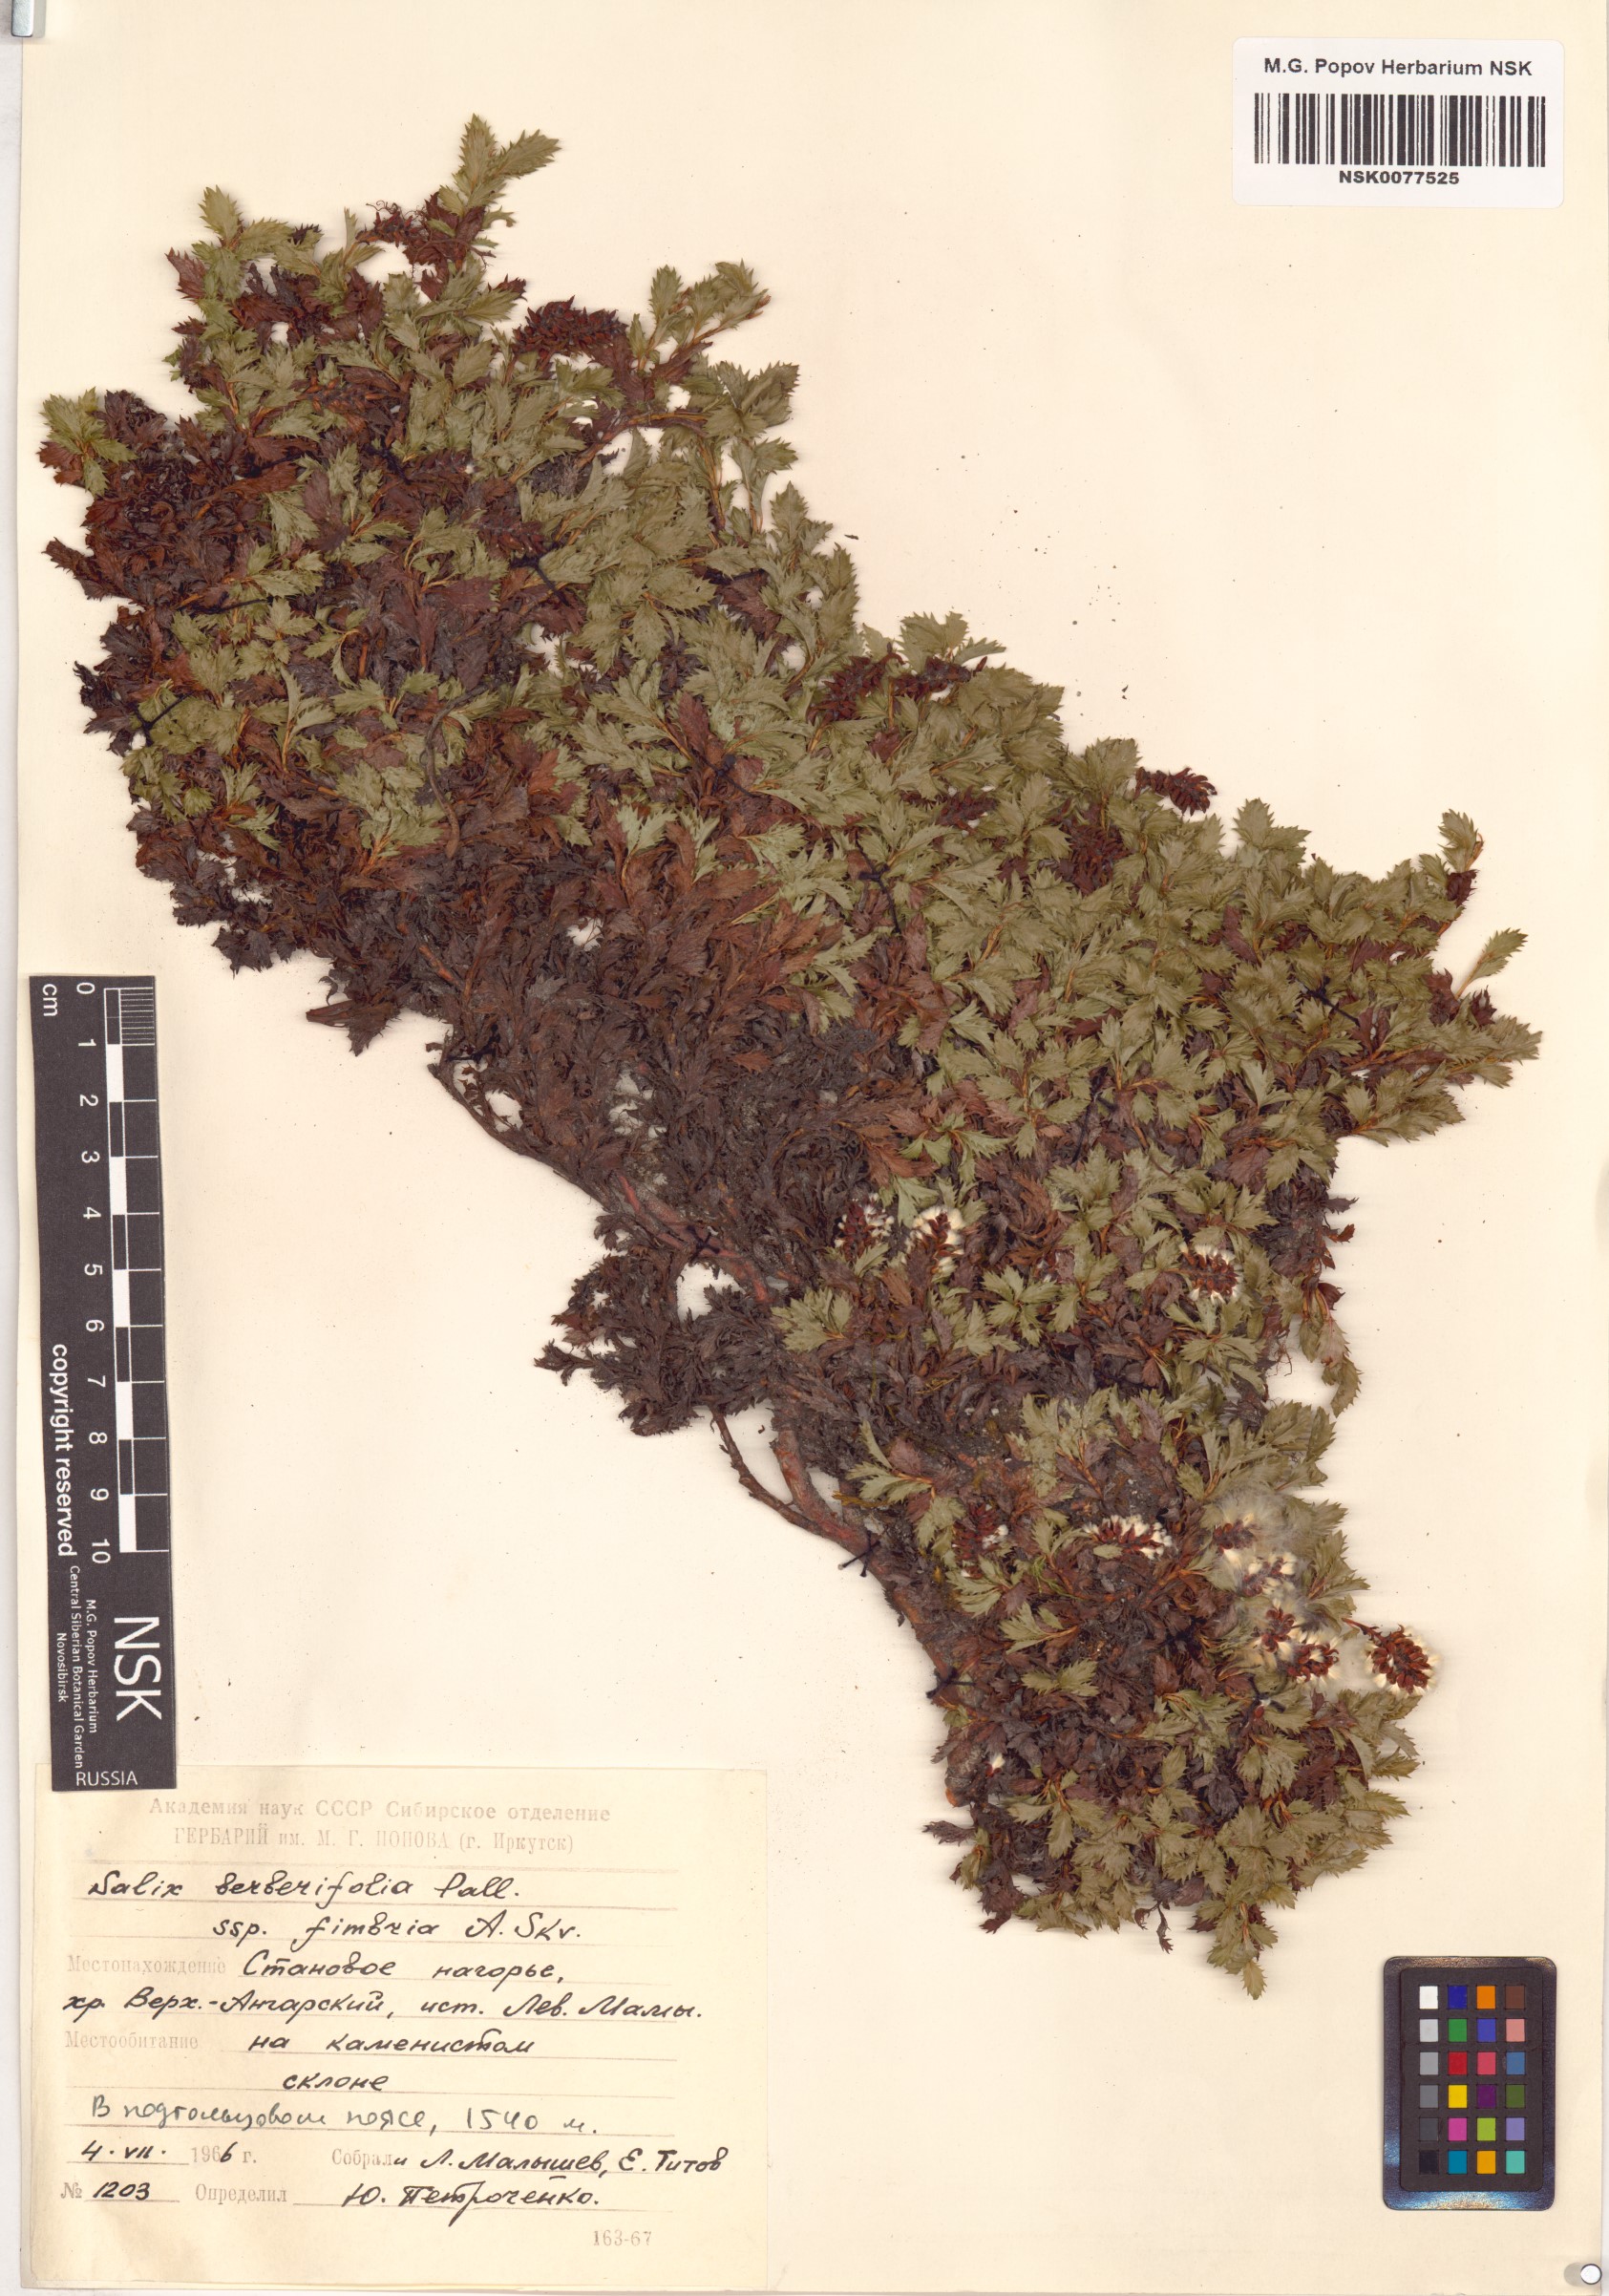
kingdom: Plantae
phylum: Tracheophyta
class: Magnoliopsida
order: Malpighiales
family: Salicaceae
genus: Salix
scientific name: Salix berberifolia
